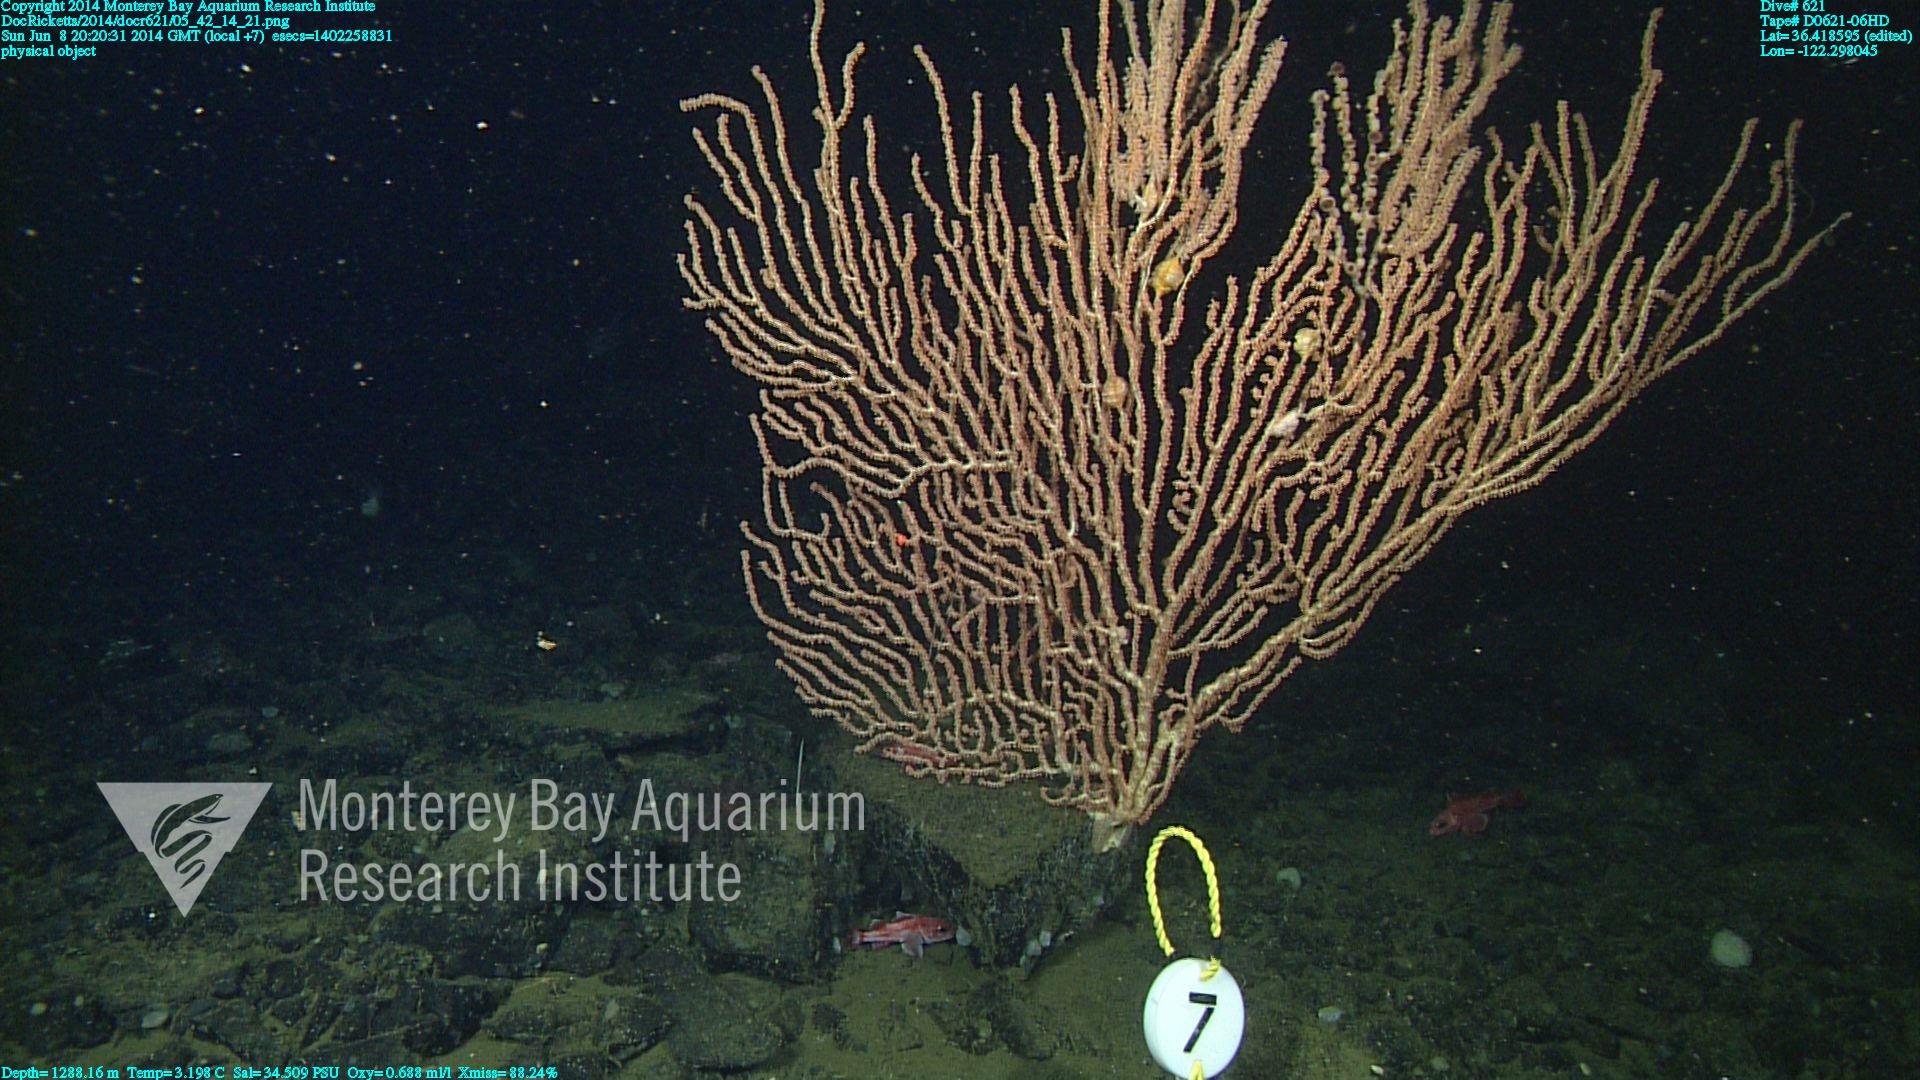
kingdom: Animalia
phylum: Cnidaria
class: Anthozoa
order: Scleralcyonacea
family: Keratoisididae
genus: Keratoisis
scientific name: Keratoisis
